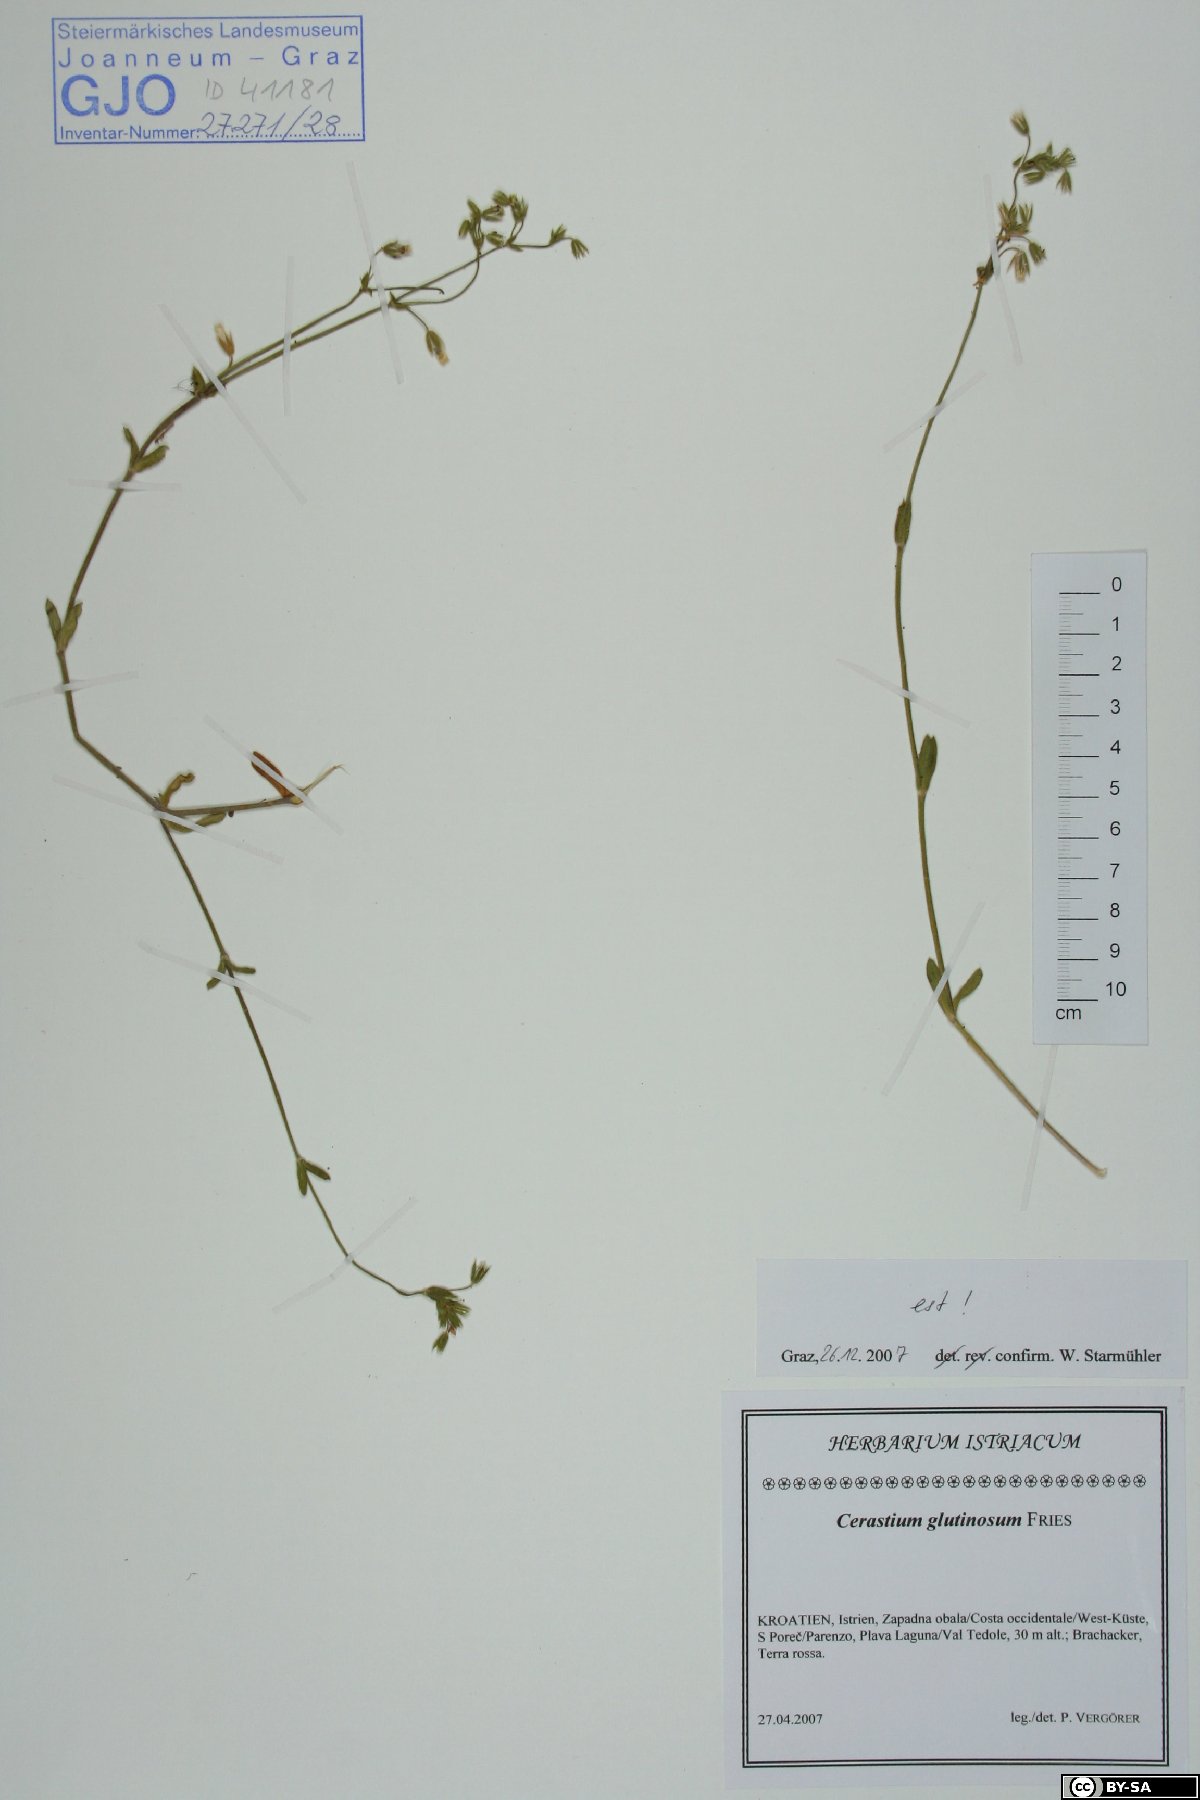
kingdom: Plantae
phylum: Tracheophyta
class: Magnoliopsida
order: Caryophyllales
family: Caryophyllaceae
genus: Cerastium
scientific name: Cerastium glutinosum
